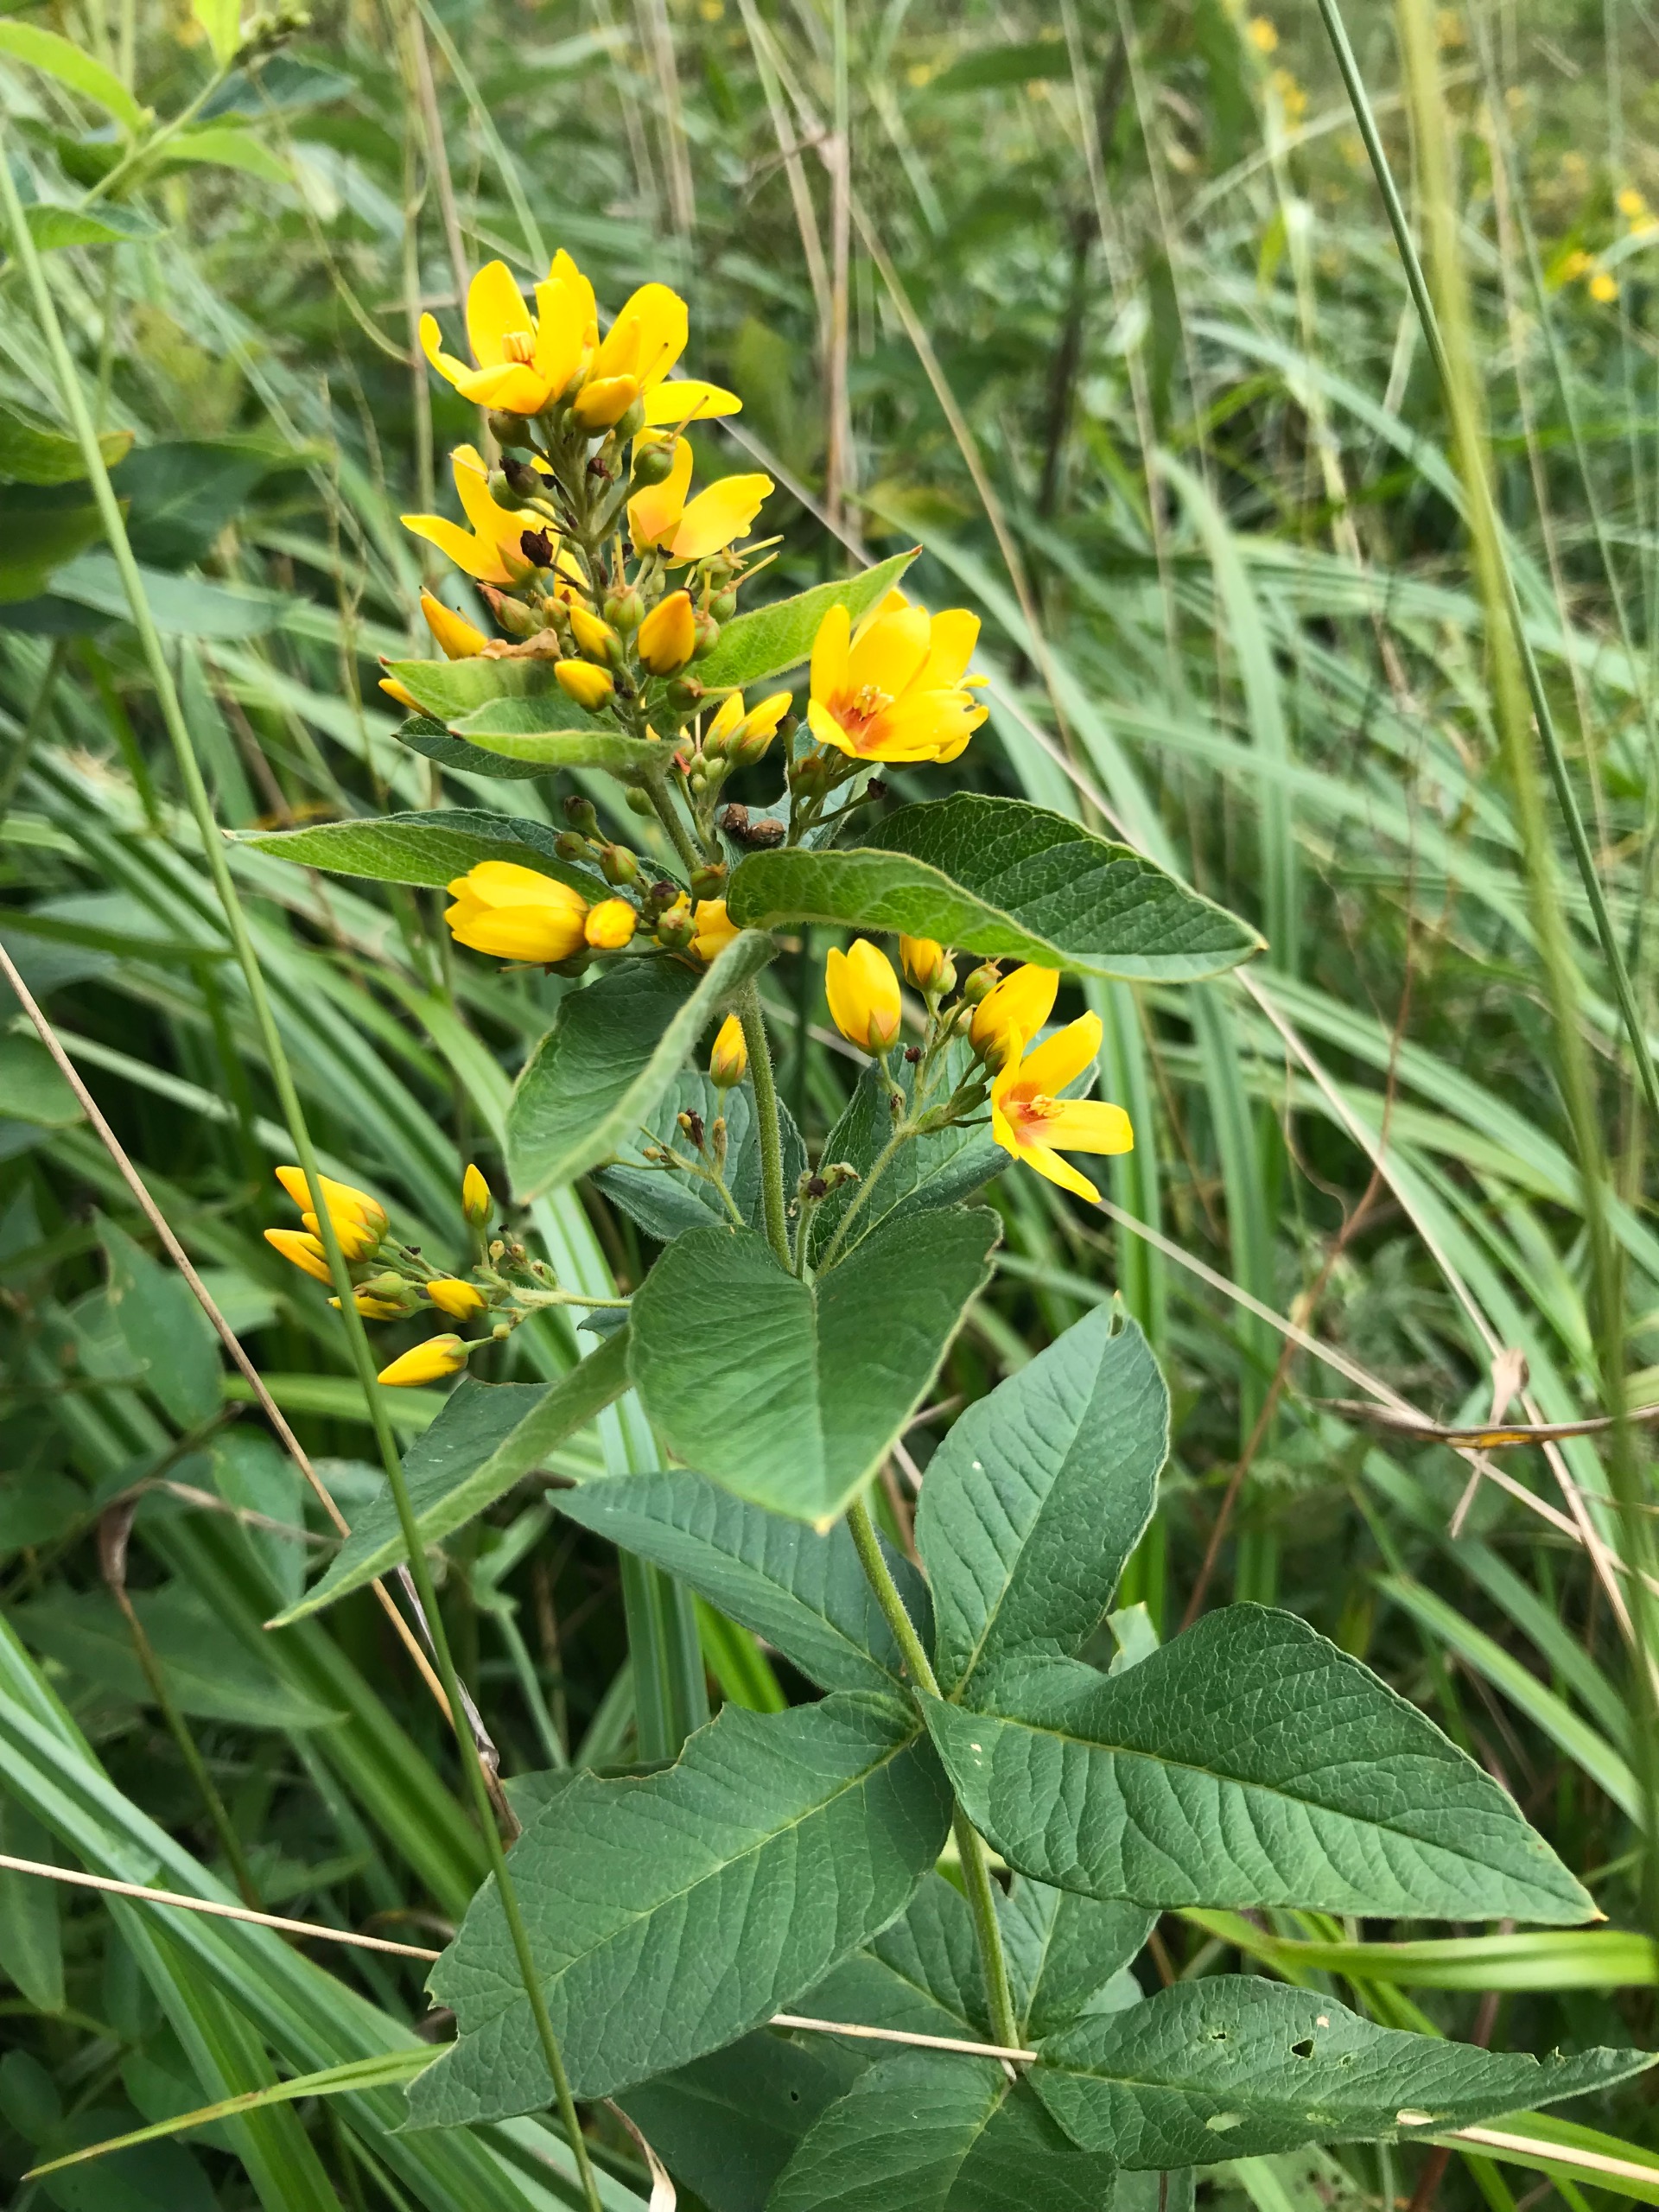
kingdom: Plantae
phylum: Tracheophyta
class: Magnoliopsida
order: Ericales
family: Primulaceae
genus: Lysimachia
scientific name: Lysimachia vulgaris
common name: Almindelig fredløs
